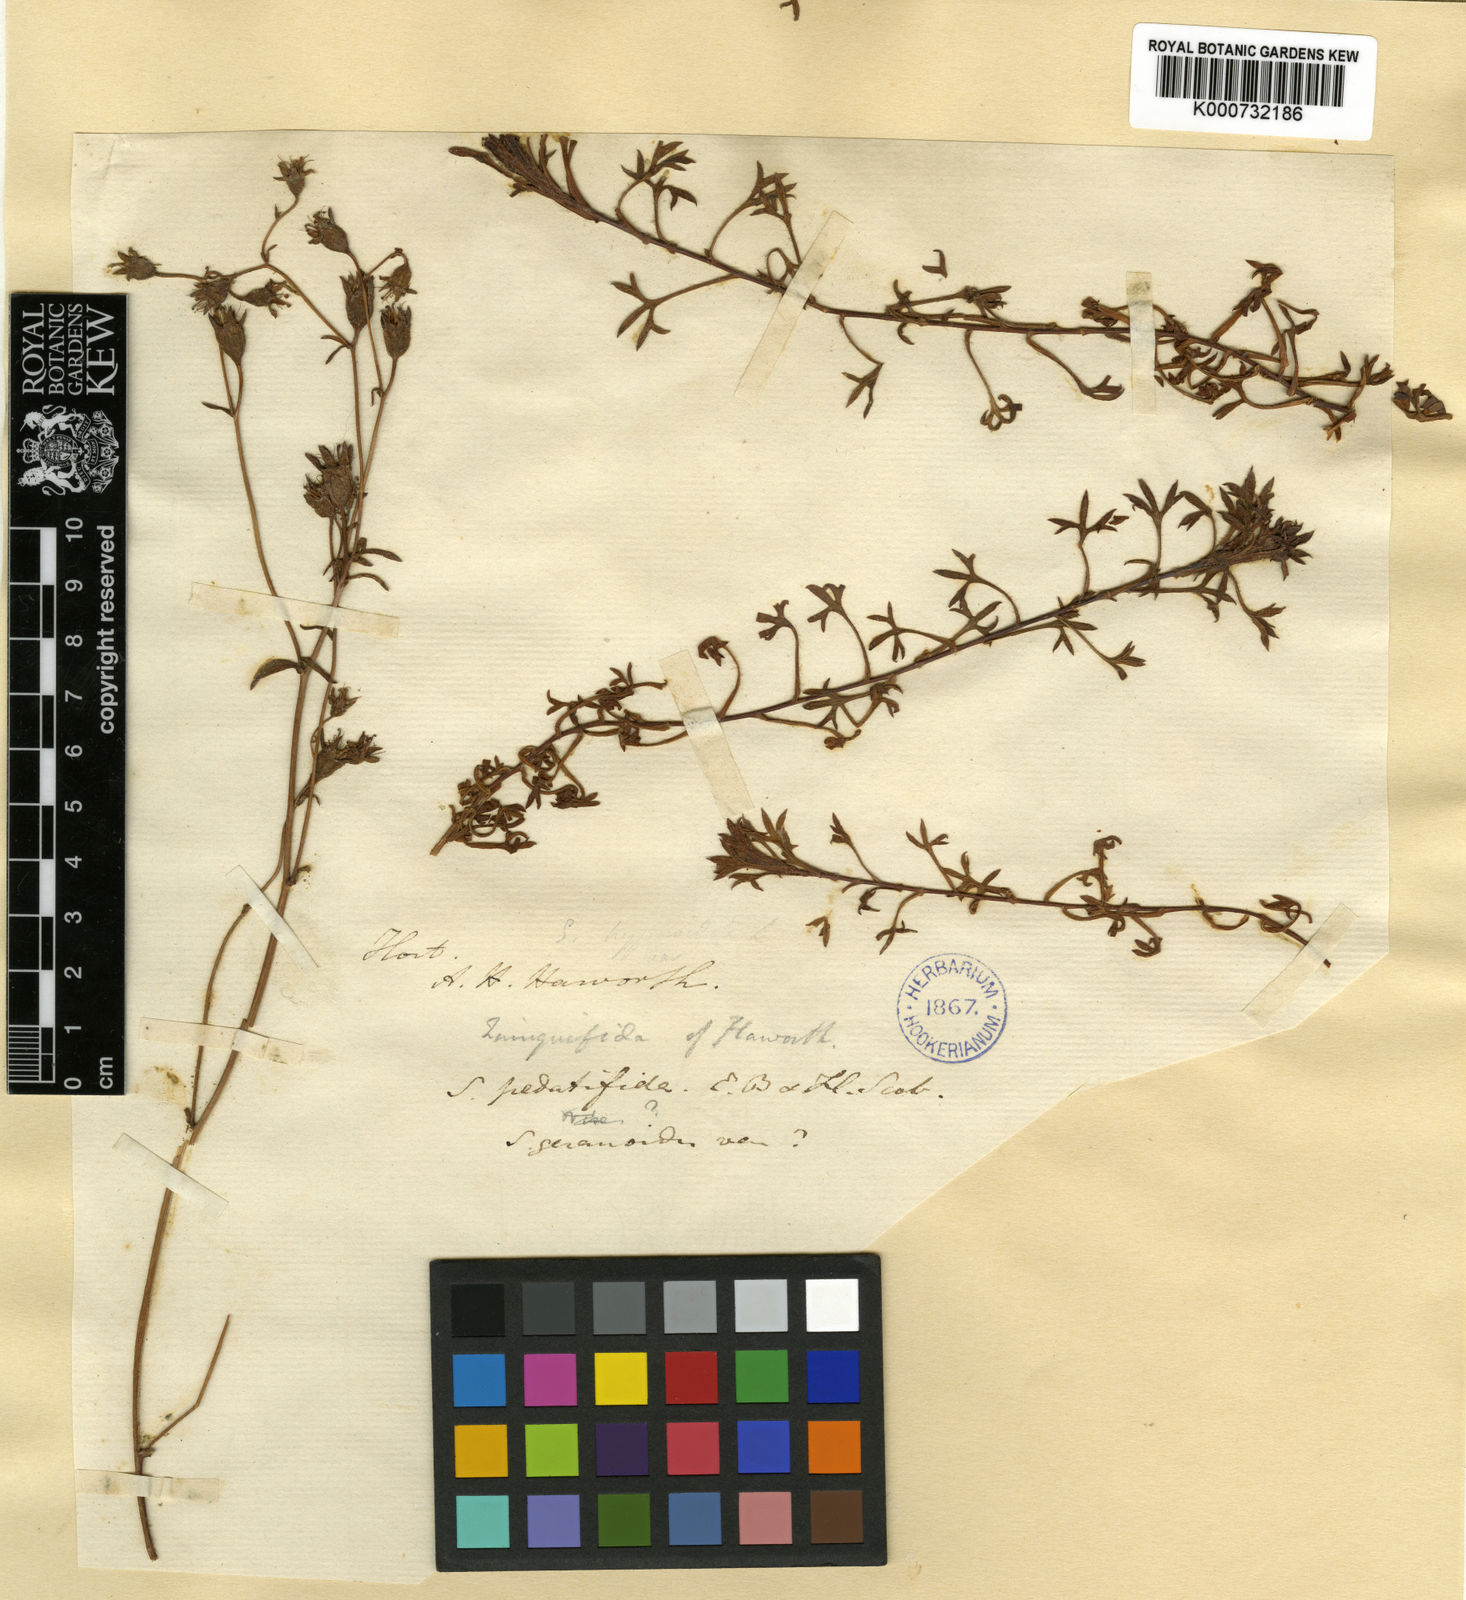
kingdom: Plantae
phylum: Tracheophyta
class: Magnoliopsida
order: Saxifragales
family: Saxifragaceae
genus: Saxifraga
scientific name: Saxifraga rosacea
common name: Irish saxifrage
